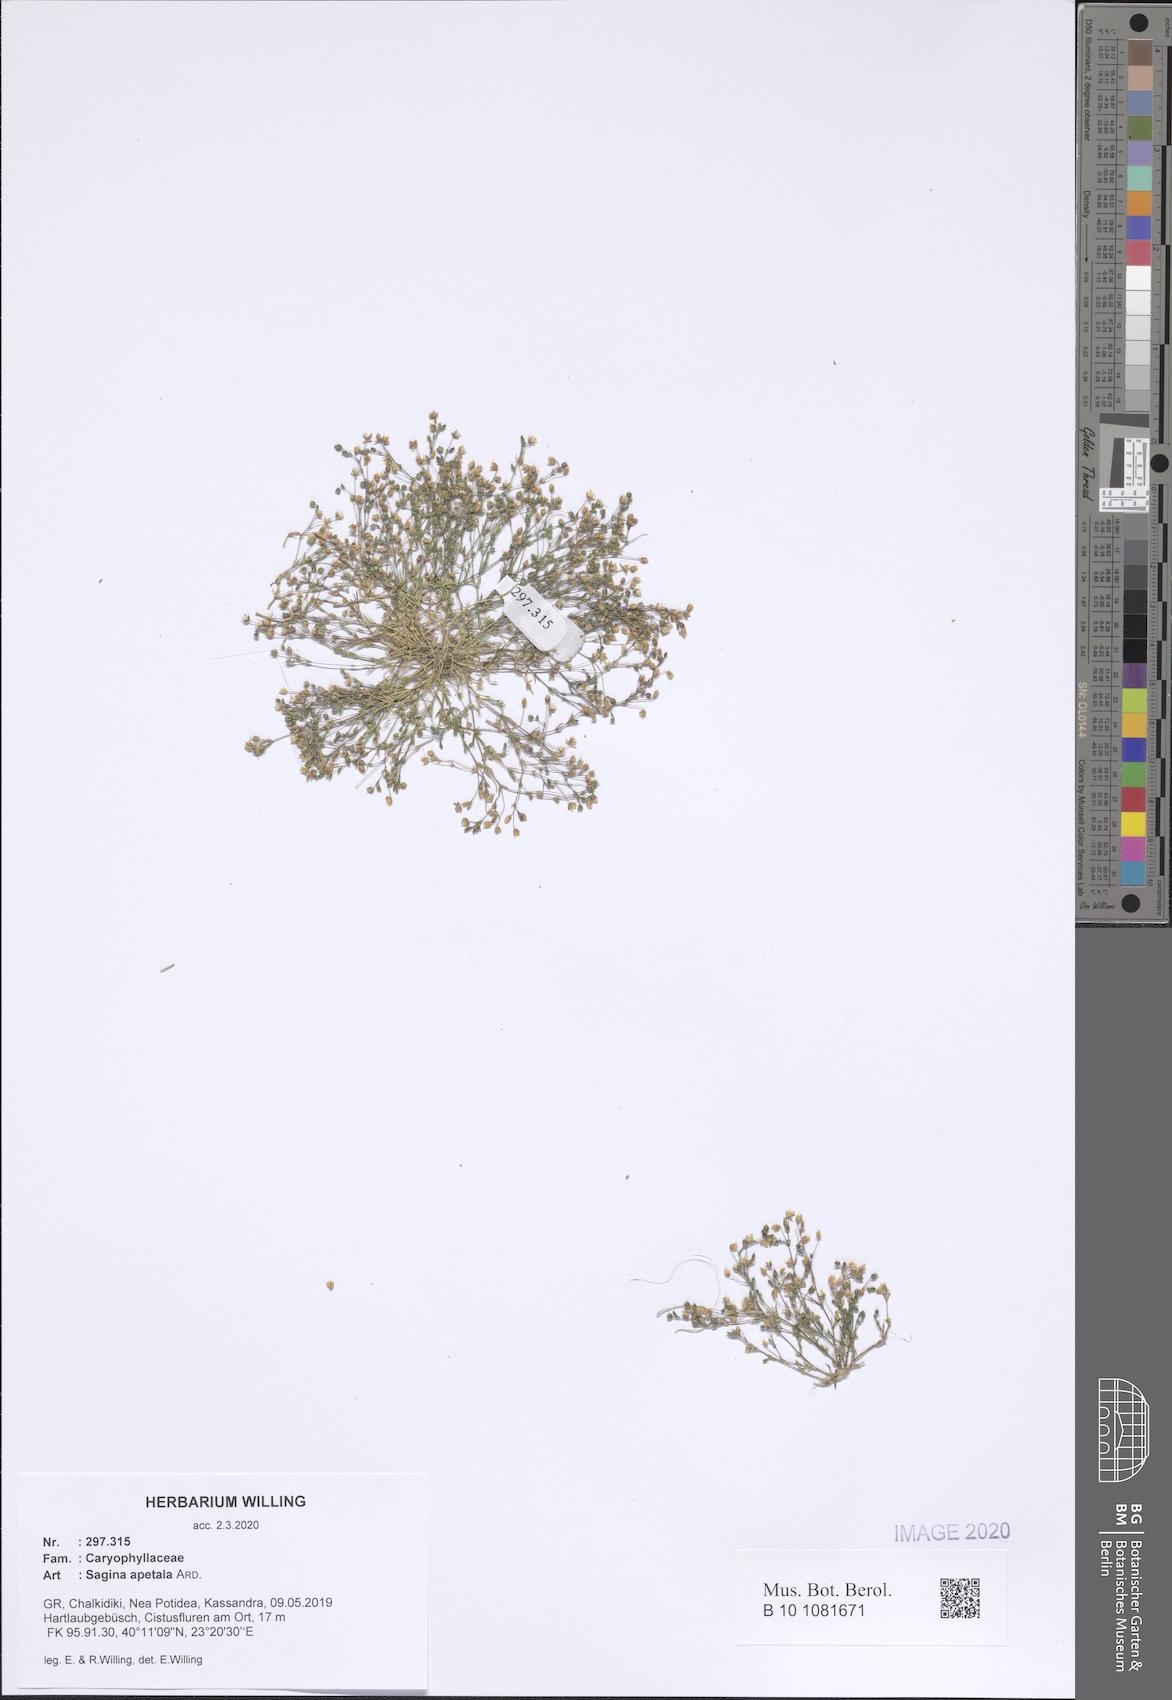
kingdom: Plantae
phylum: Tracheophyta
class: Magnoliopsida
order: Caryophyllales
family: Caryophyllaceae
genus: Sagina
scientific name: Sagina apetala
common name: Annual pearlwort
